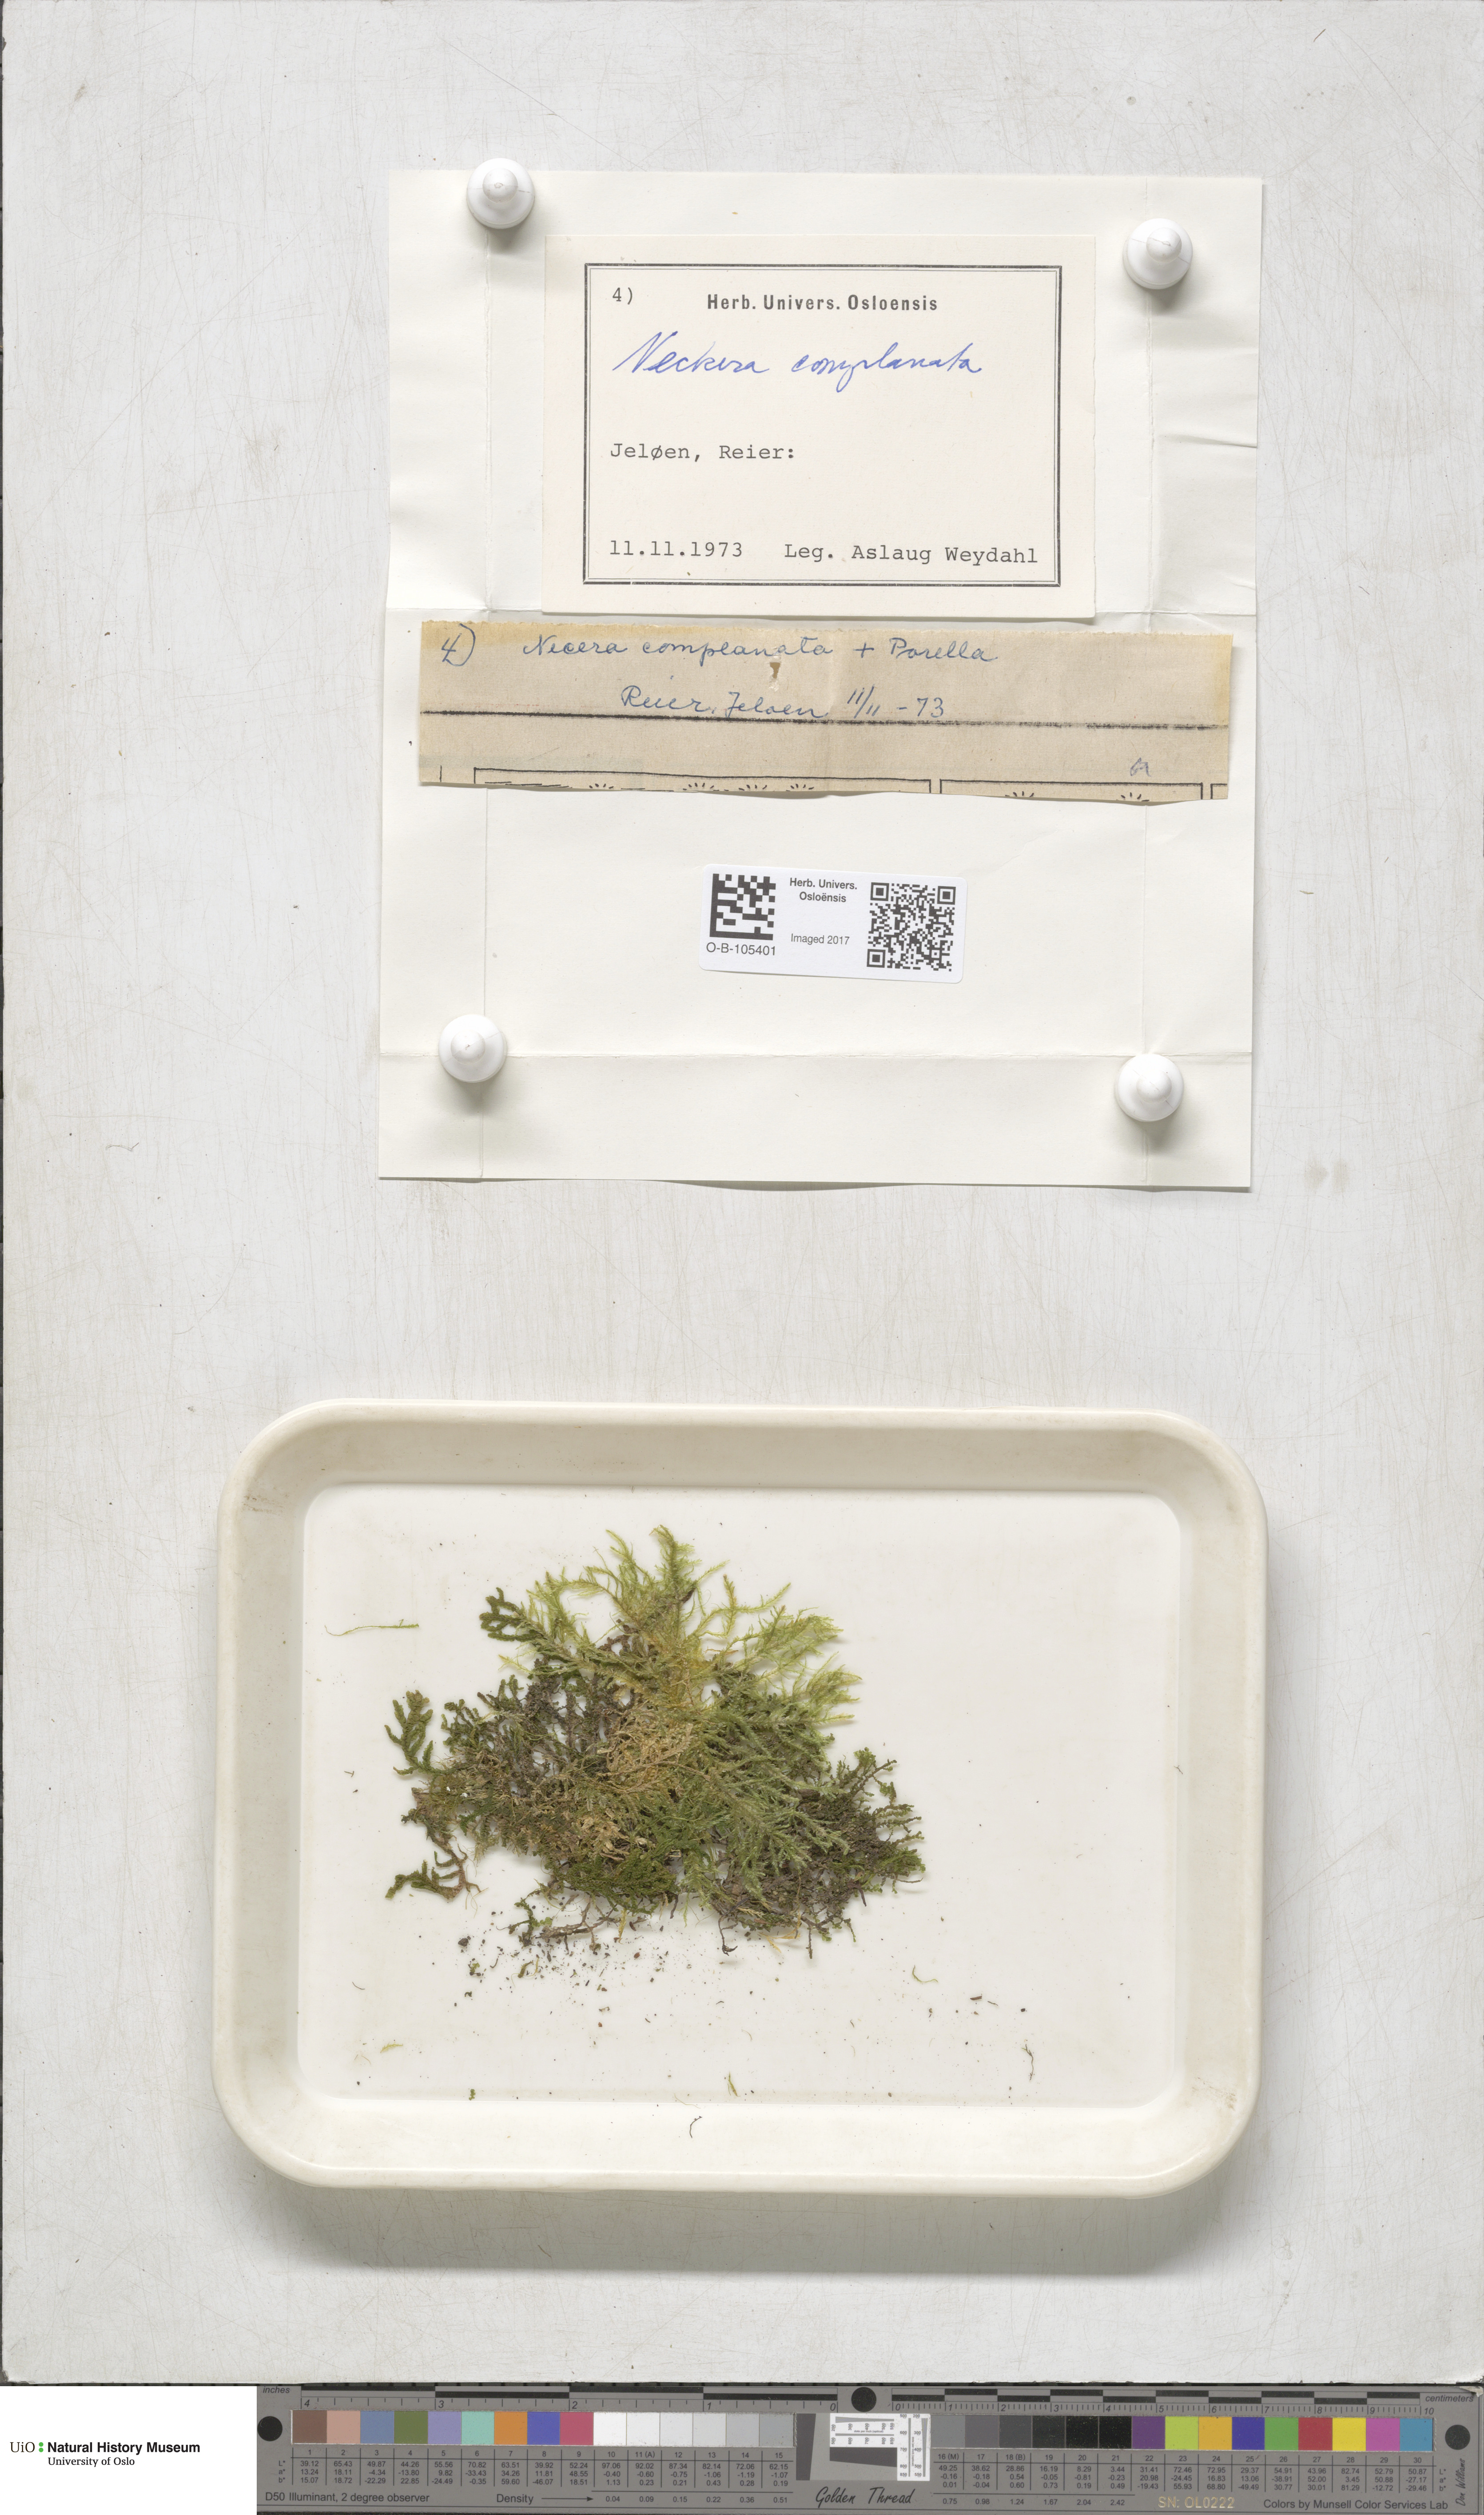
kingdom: Plantae
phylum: Bryophyta
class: Bryopsida
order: Hypnales
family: Neckeraceae
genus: Alleniella
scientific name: Alleniella complanata
